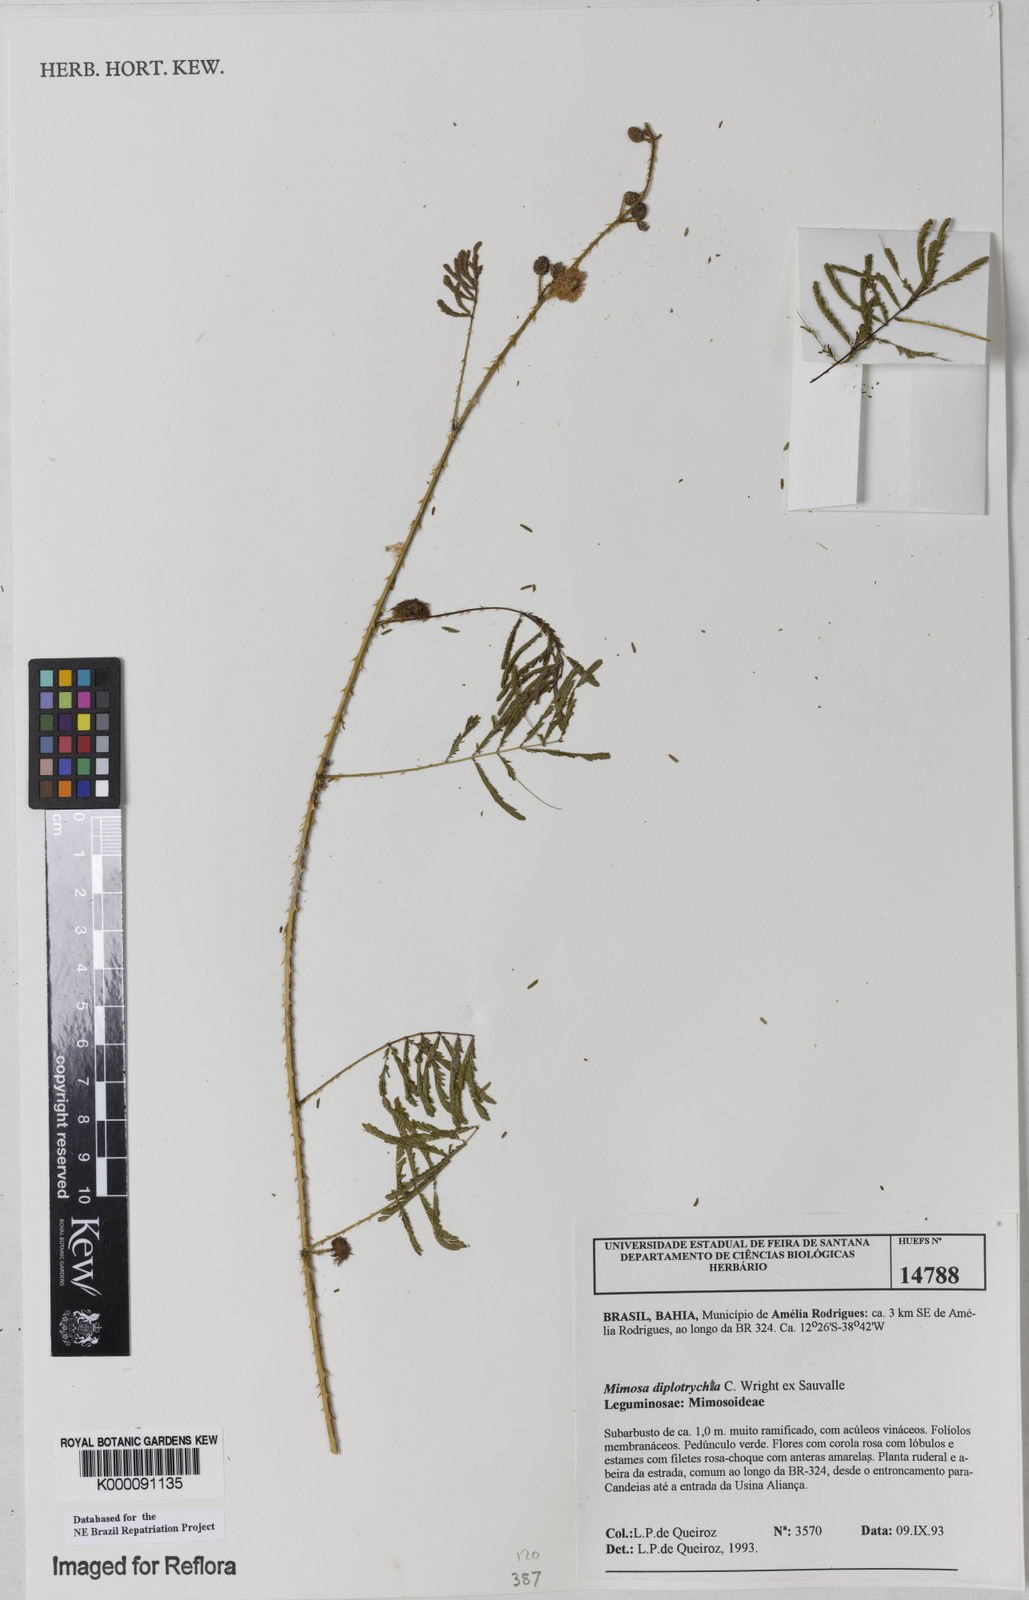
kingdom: Plantae
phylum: Tracheophyta
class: Magnoliopsida
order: Fabales
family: Fabaceae
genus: Mimosa
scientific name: Mimosa
